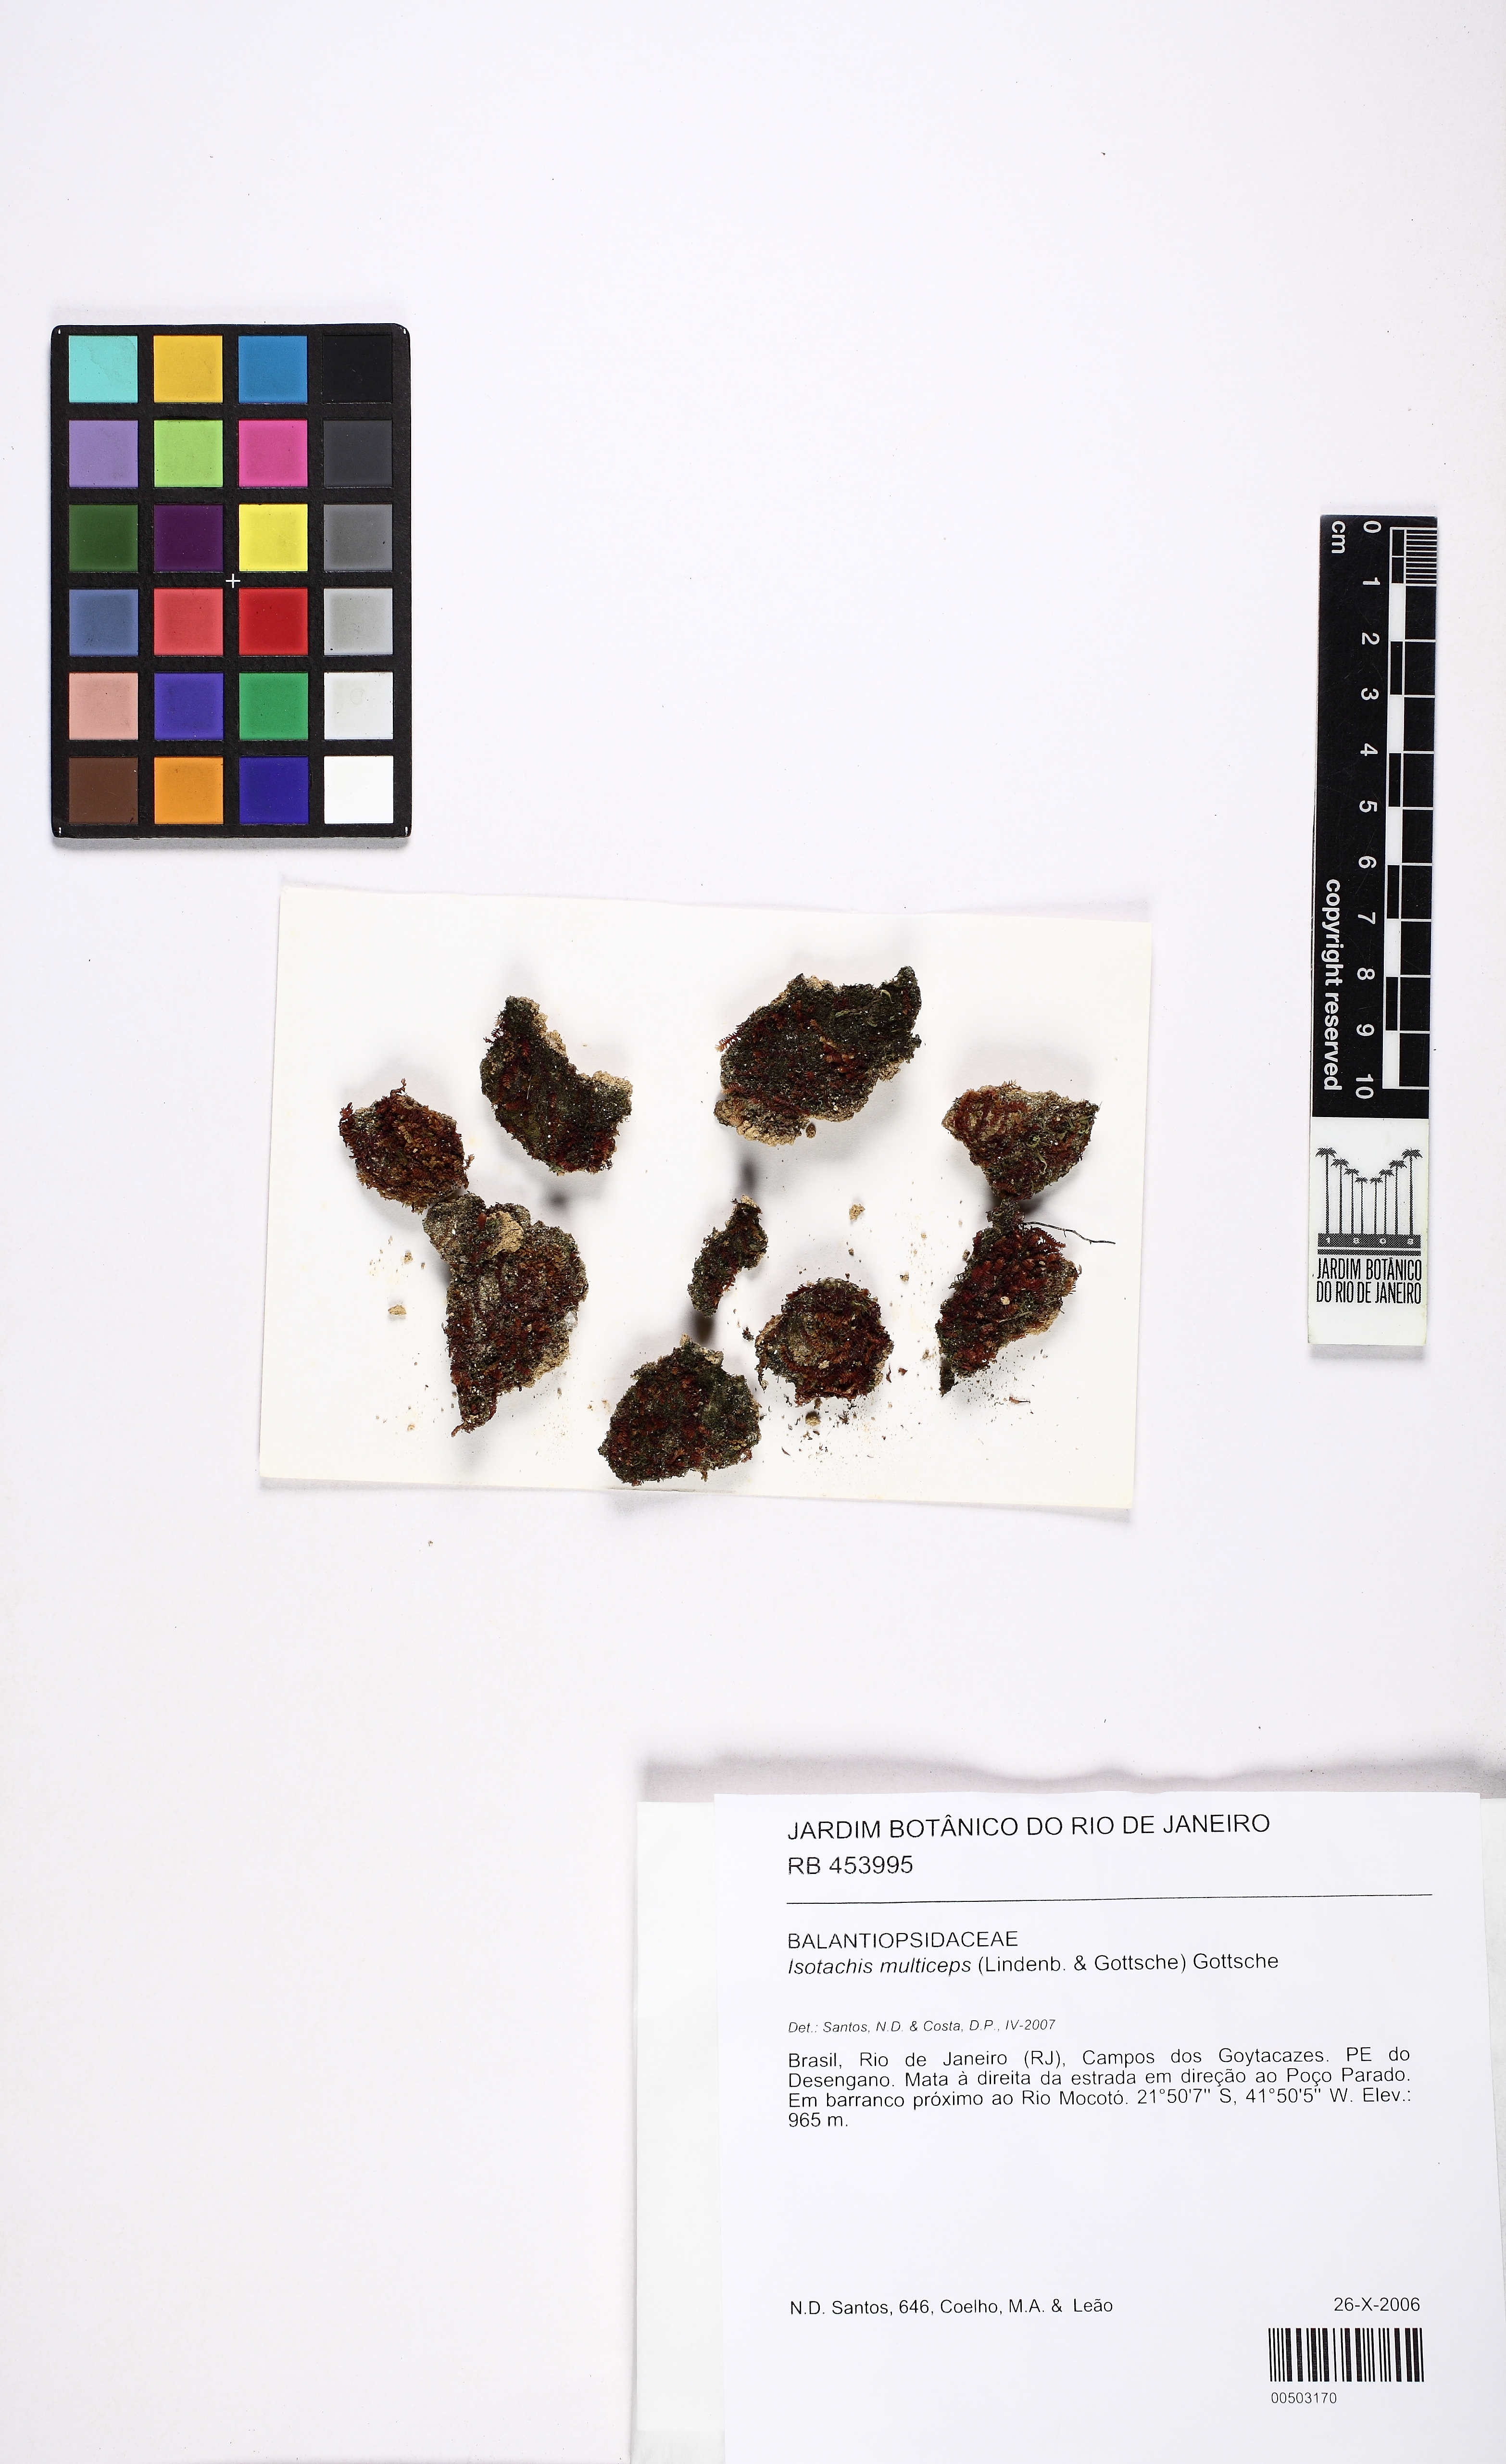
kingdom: Plantae
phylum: Marchantiophyta
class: Jungermanniopsida
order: Jungermanniales
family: Balantiopsidaceae
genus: Isotachis
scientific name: Isotachis multiceps
